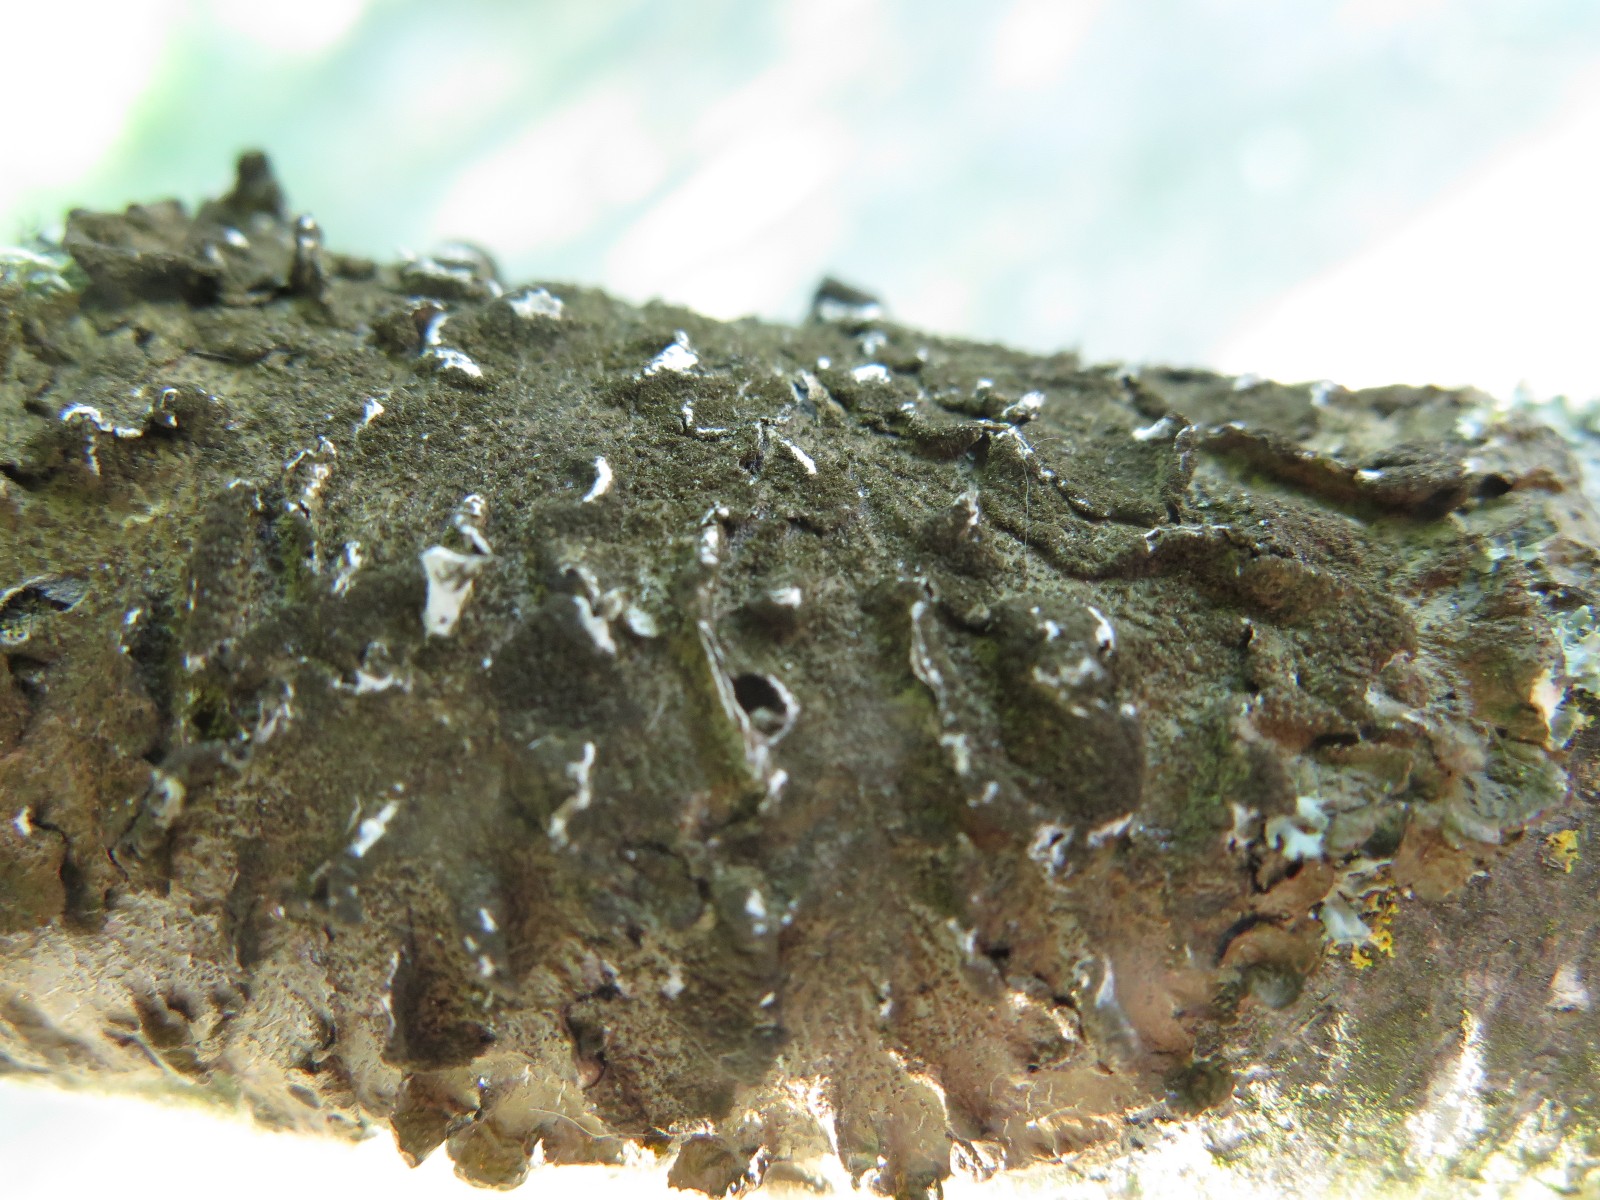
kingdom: Fungi
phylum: Ascomycota
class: Lecanoromycetes
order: Lecanorales
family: Parmeliaceae
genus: Melanelixia
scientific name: Melanelixia subaurifera
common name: guldpudret skållav
